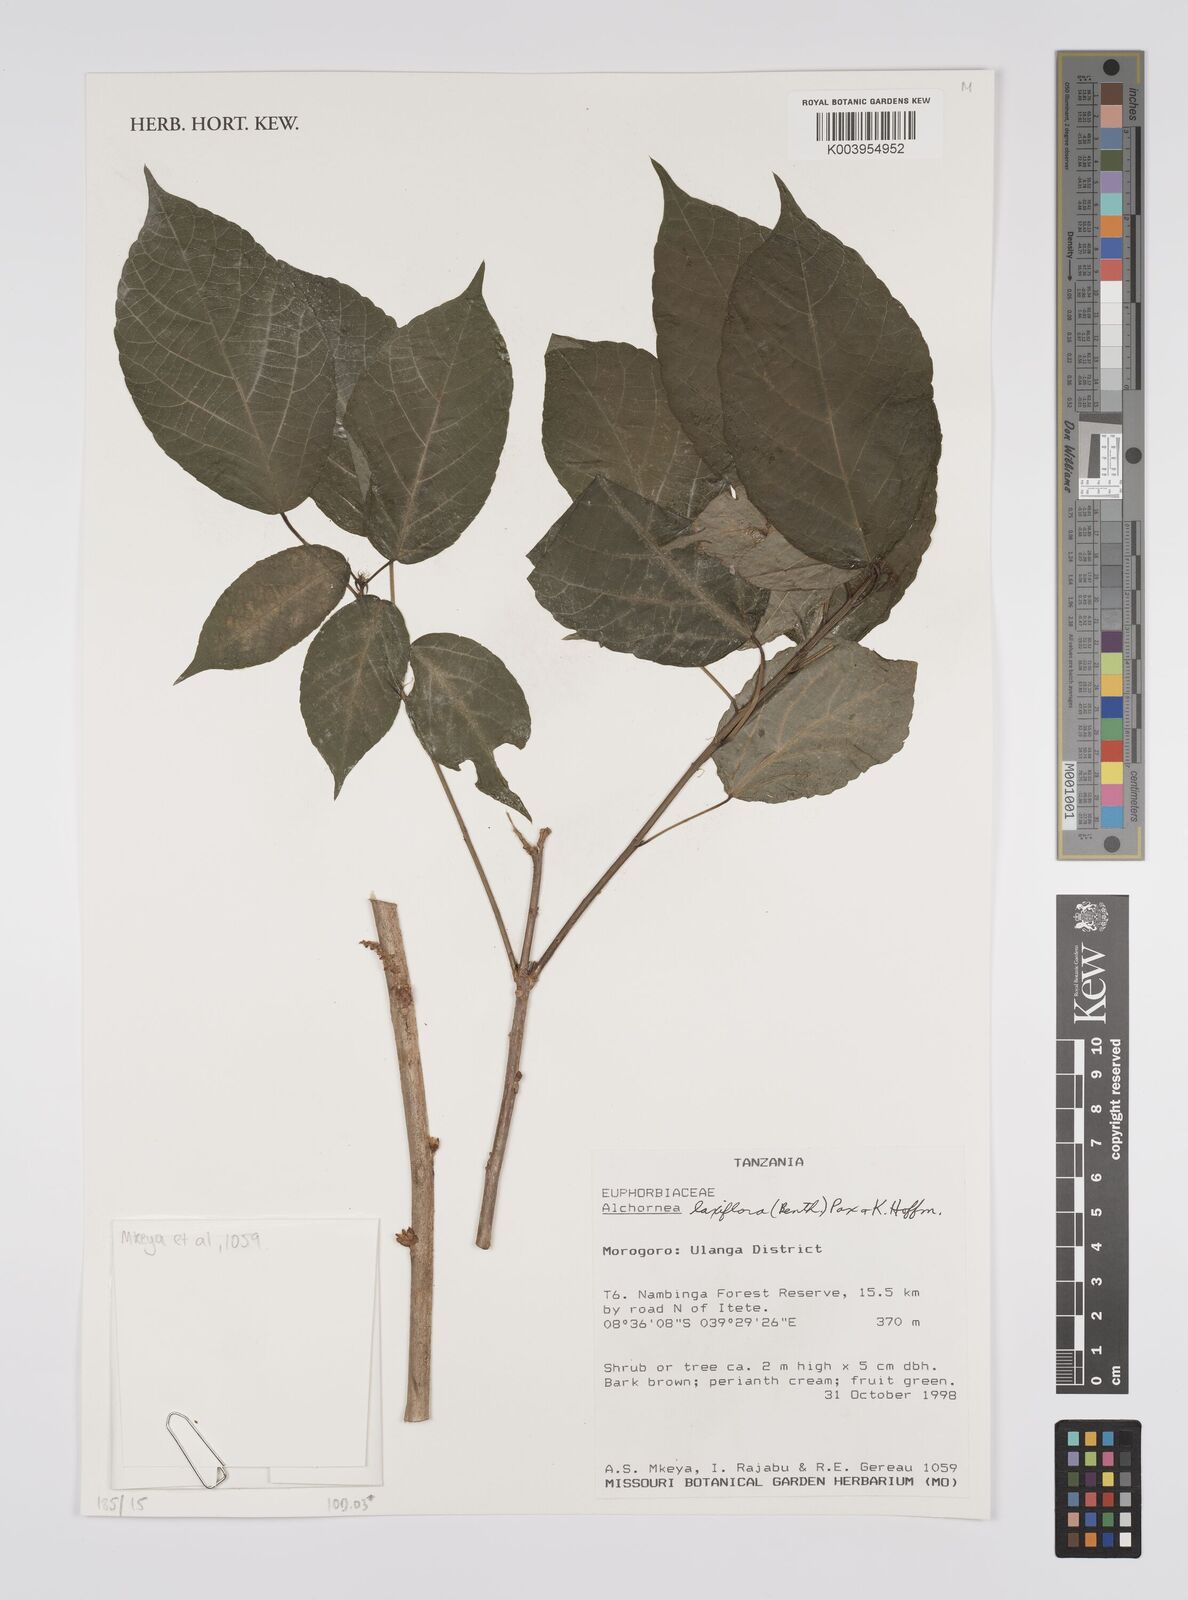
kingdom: Plantae
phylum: Tracheophyta
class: Magnoliopsida
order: Malpighiales
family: Euphorbiaceae
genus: Alchornea
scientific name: Alchornea laxiflora
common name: Lowveld bead-string
